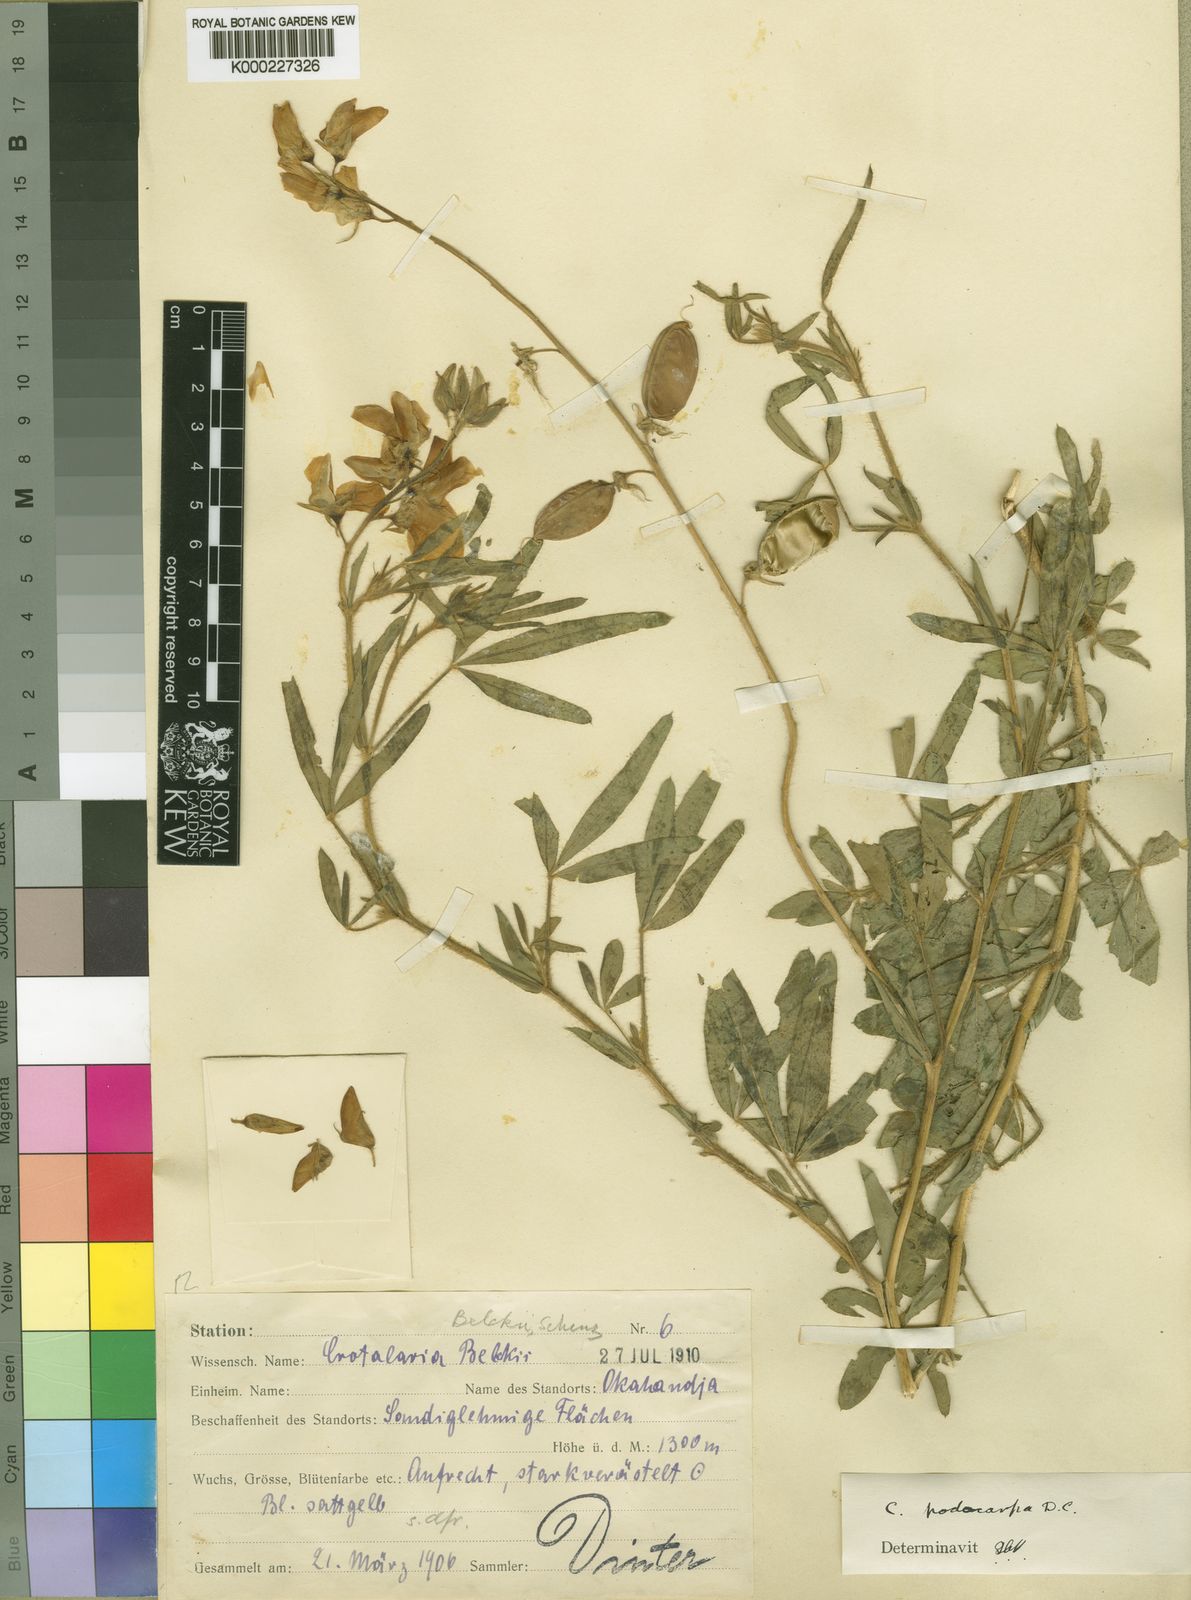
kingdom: Plantae
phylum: Tracheophyta
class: Magnoliopsida
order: Fabales
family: Fabaceae
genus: Crotalaria
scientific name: Crotalaria podocarpa
